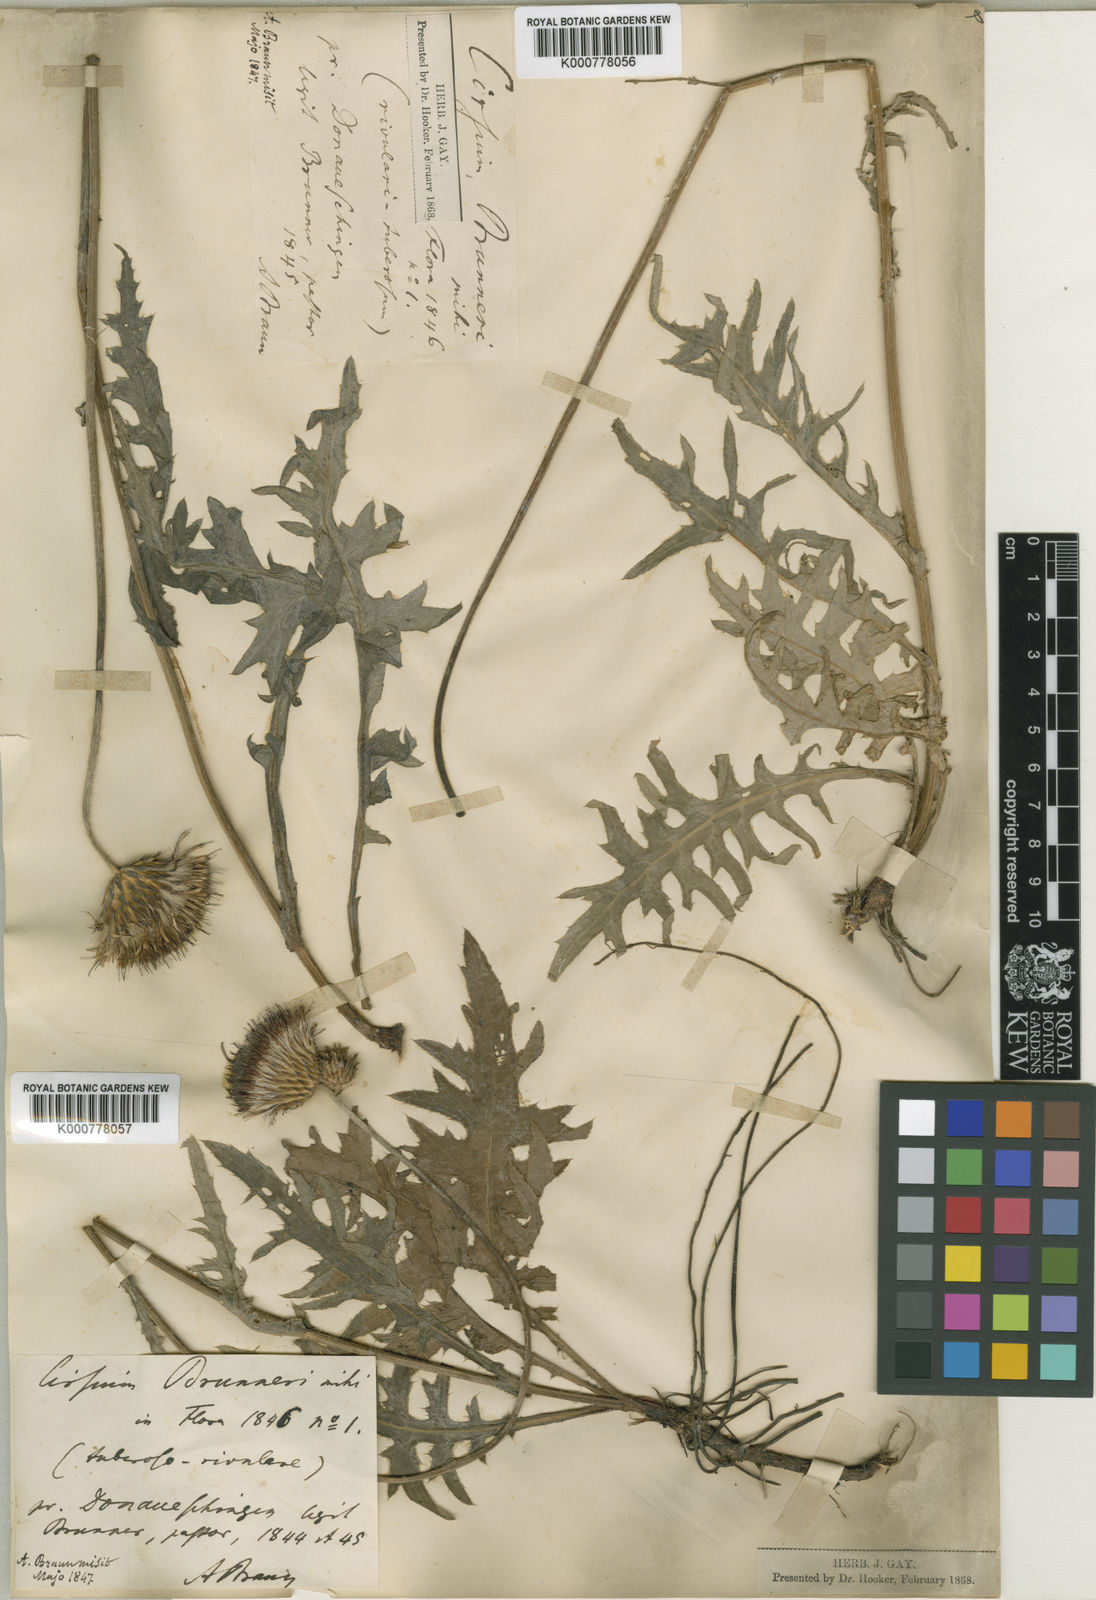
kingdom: Plantae
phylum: Tracheophyta
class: Magnoliopsida
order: Asterales
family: Asteraceae
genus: Cirsium
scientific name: Cirsium tuberosum
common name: Tuberous thistle
